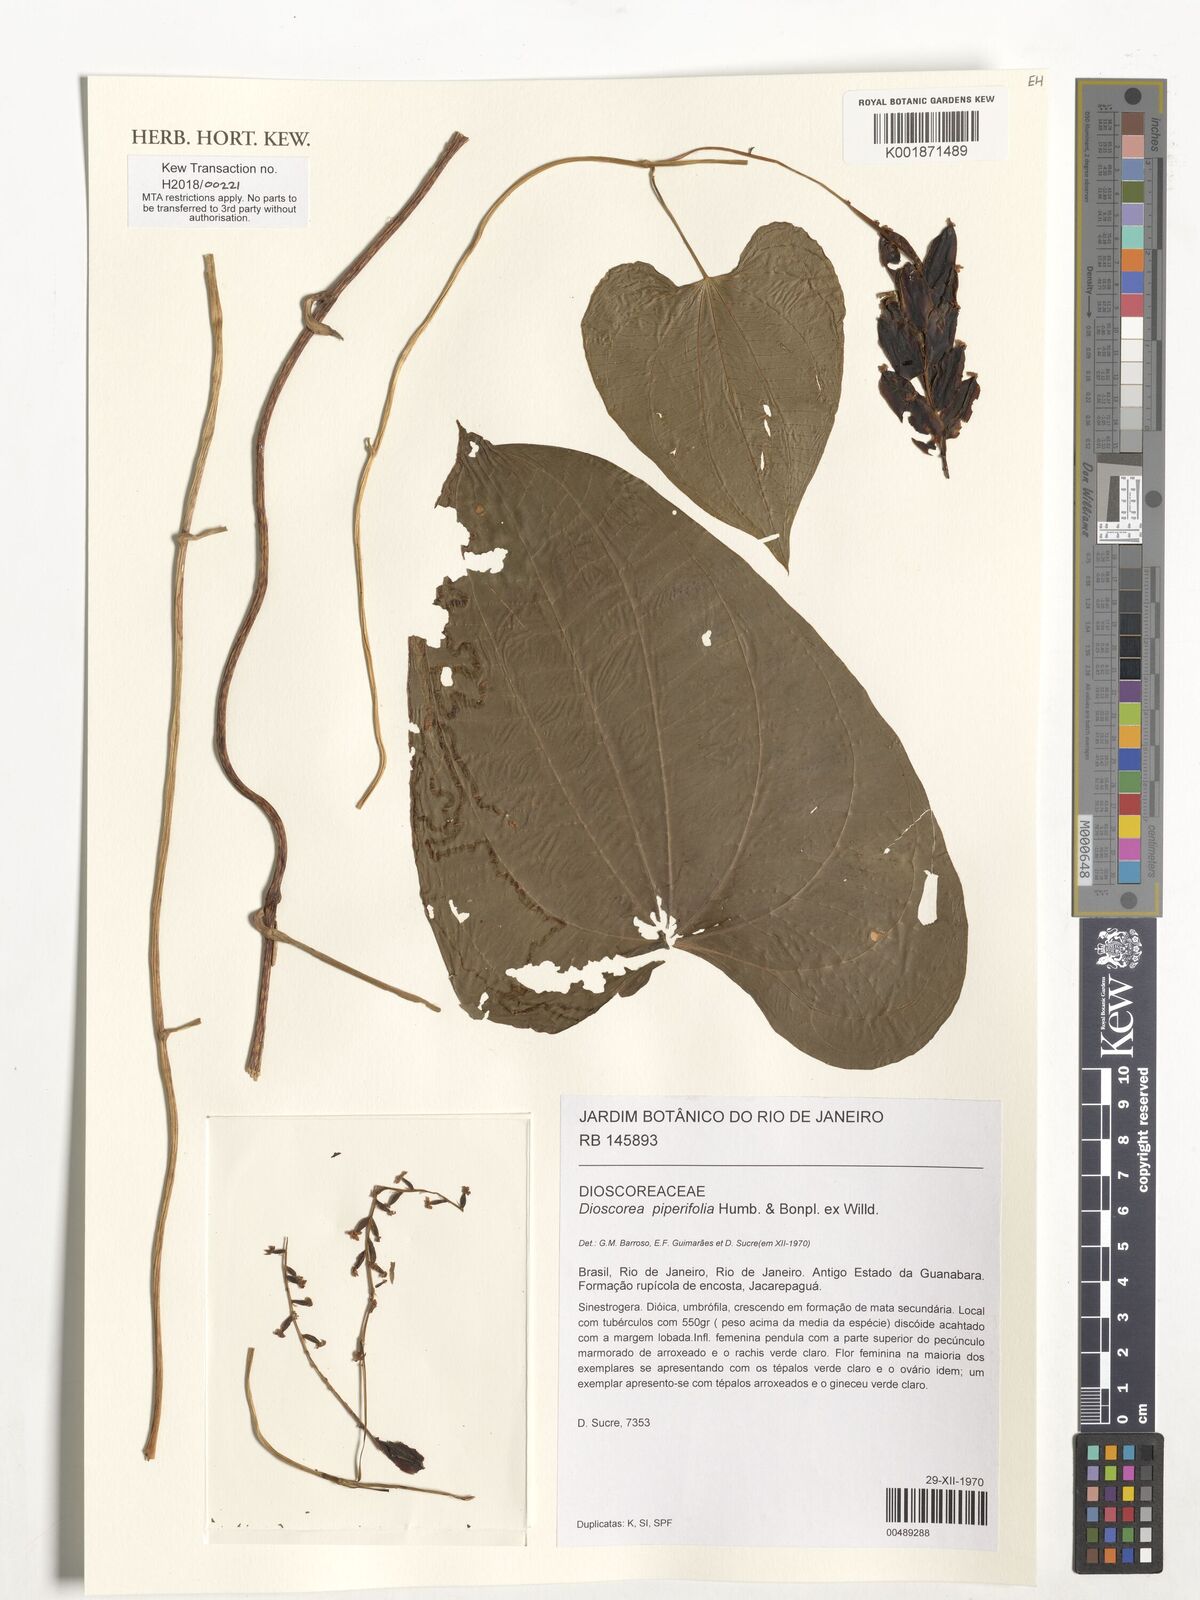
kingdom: Plantae
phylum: Tracheophyta
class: Liliopsida
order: Dioscoreales
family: Dioscoreaceae
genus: Dioscorea
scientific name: Dioscorea piperifolia
